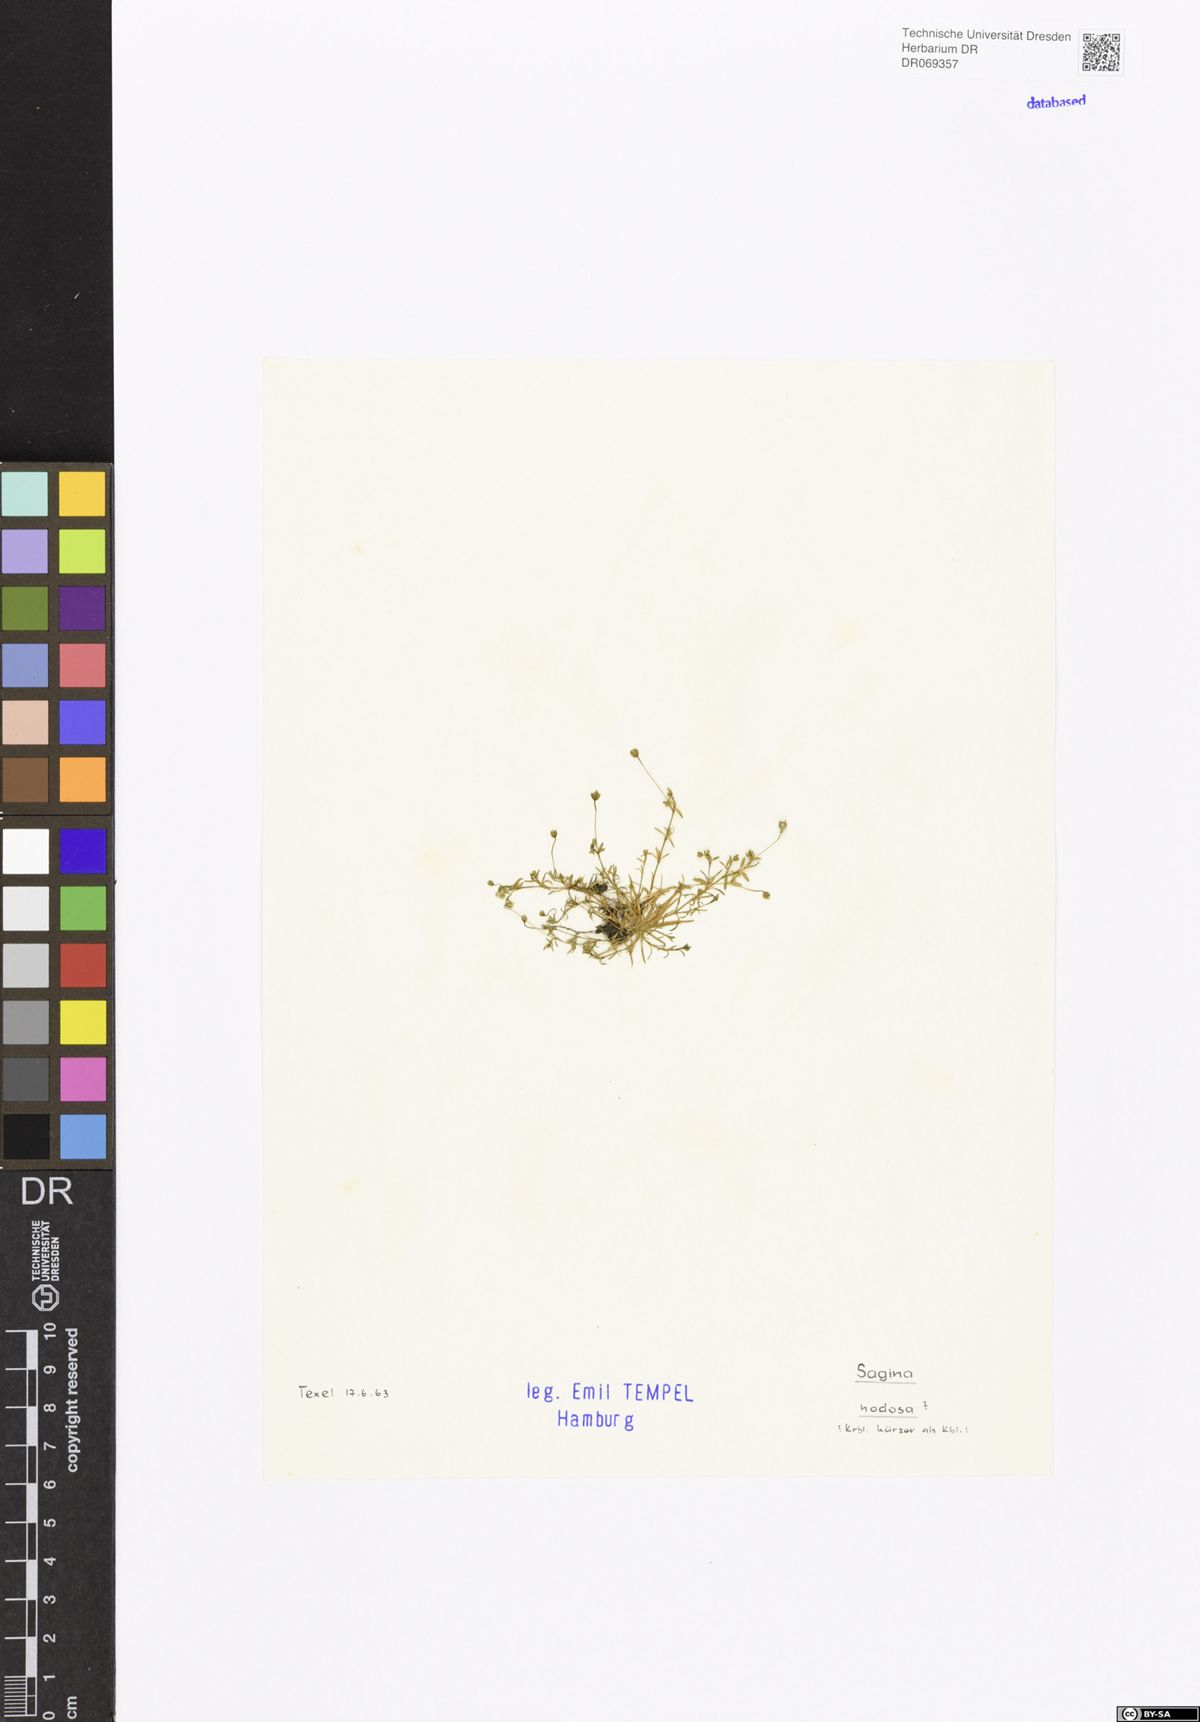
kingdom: Plantae
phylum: Tracheophyta
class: Magnoliopsida
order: Caryophyllales
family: Caryophyllaceae
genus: Sagina
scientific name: Sagina nodosa
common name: Knotted pearlwort
